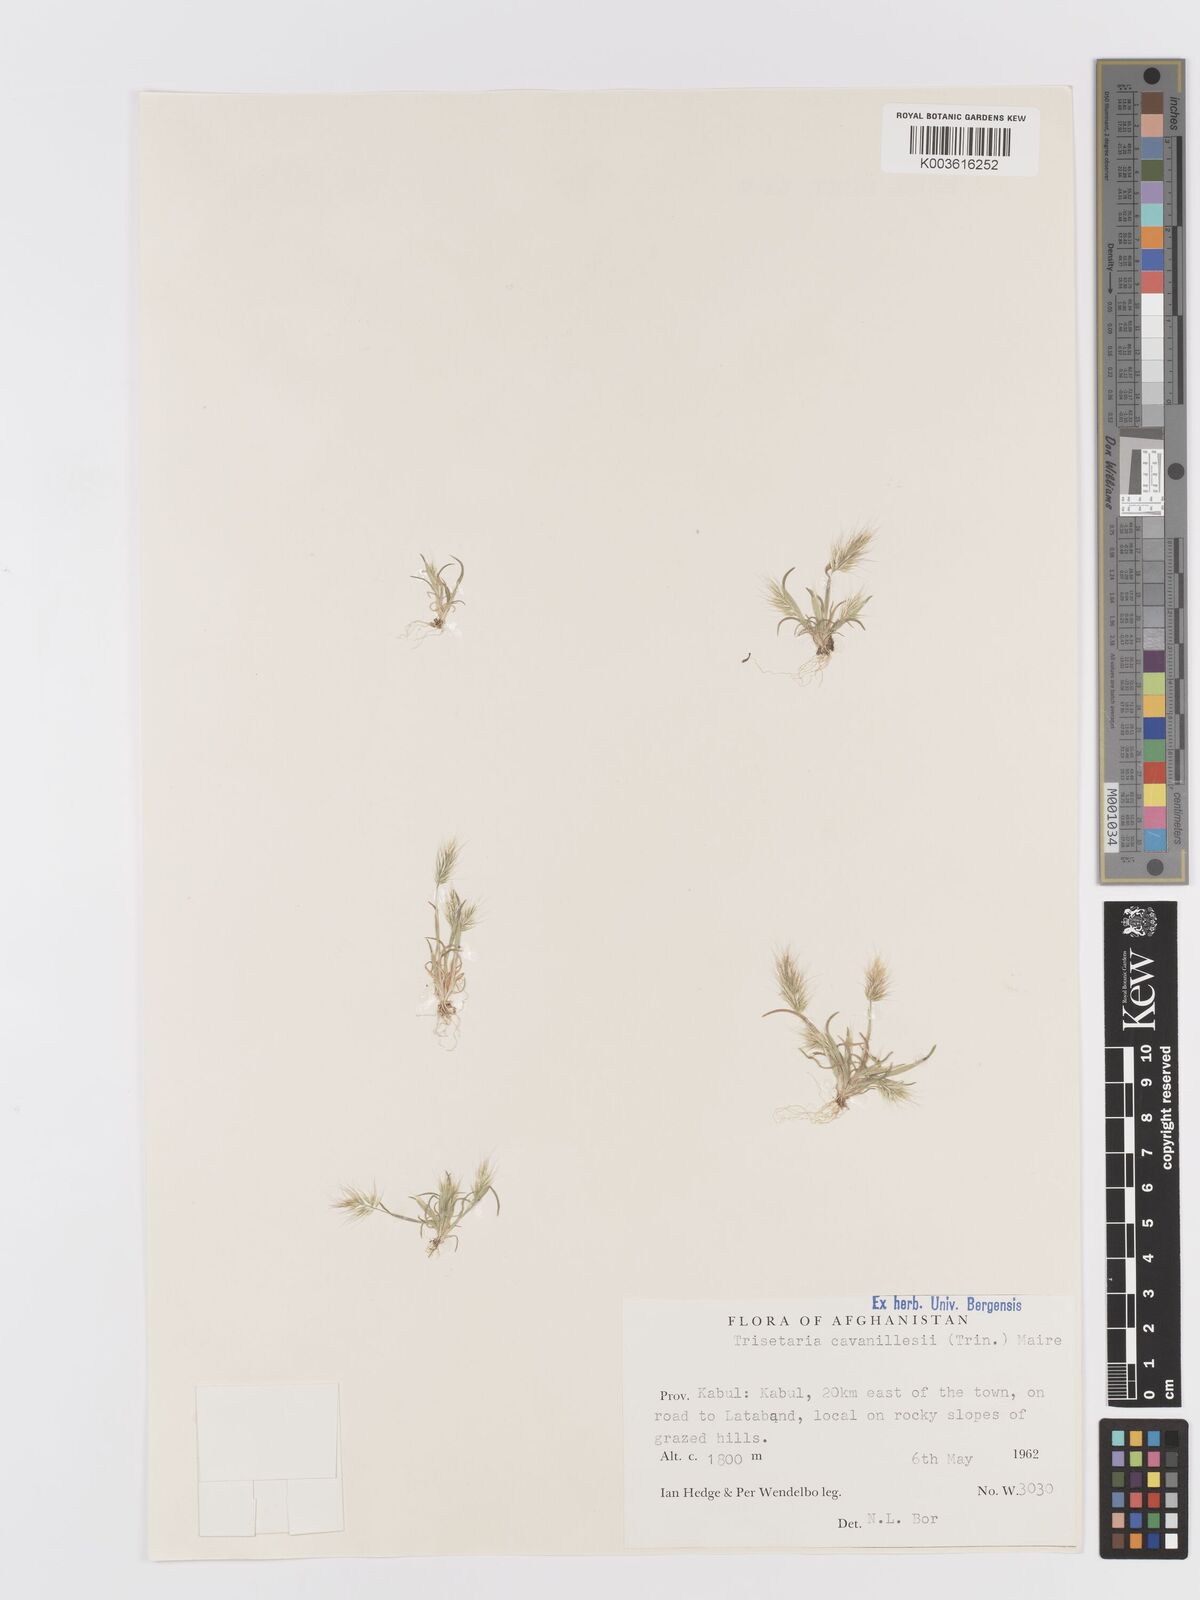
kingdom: Plantae
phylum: Tracheophyta
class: Liliopsida
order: Poales
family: Poaceae
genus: Trisetaria
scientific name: Trisetaria loeflingiana
